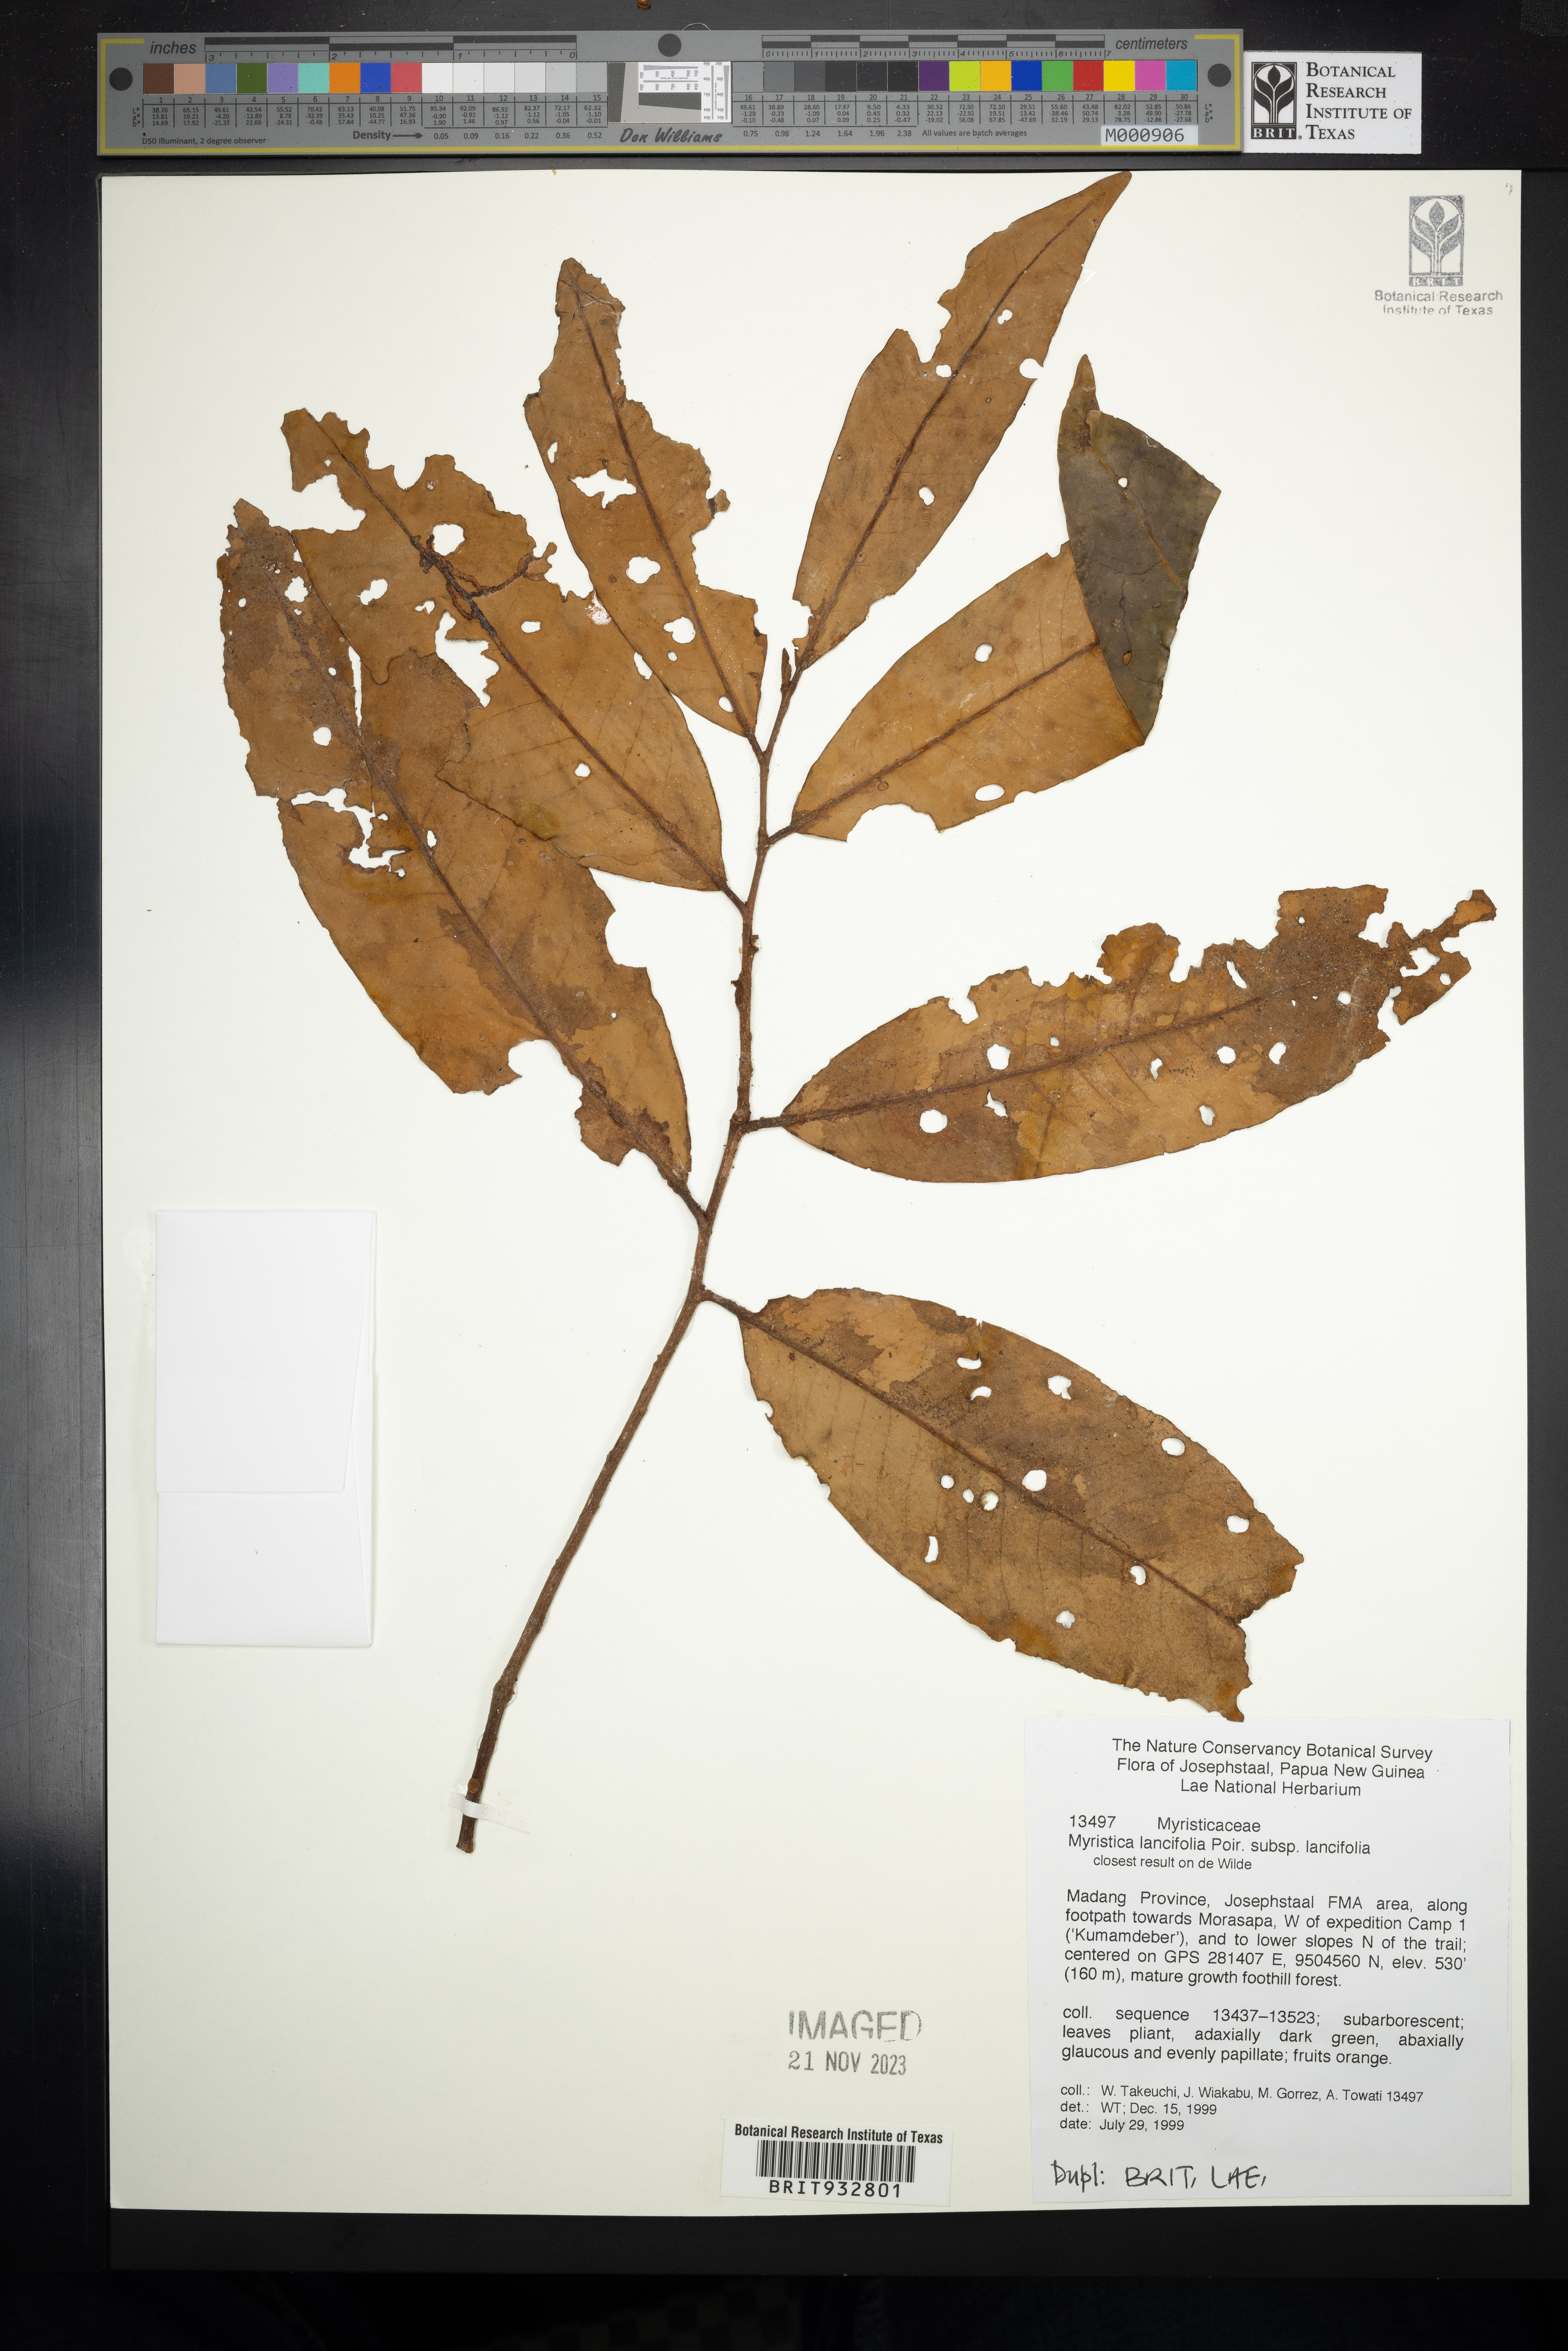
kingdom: Plantae
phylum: Tracheophyta
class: Magnoliopsida
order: Magnoliales
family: Myristicaceae
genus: Myristica
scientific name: Myristica
